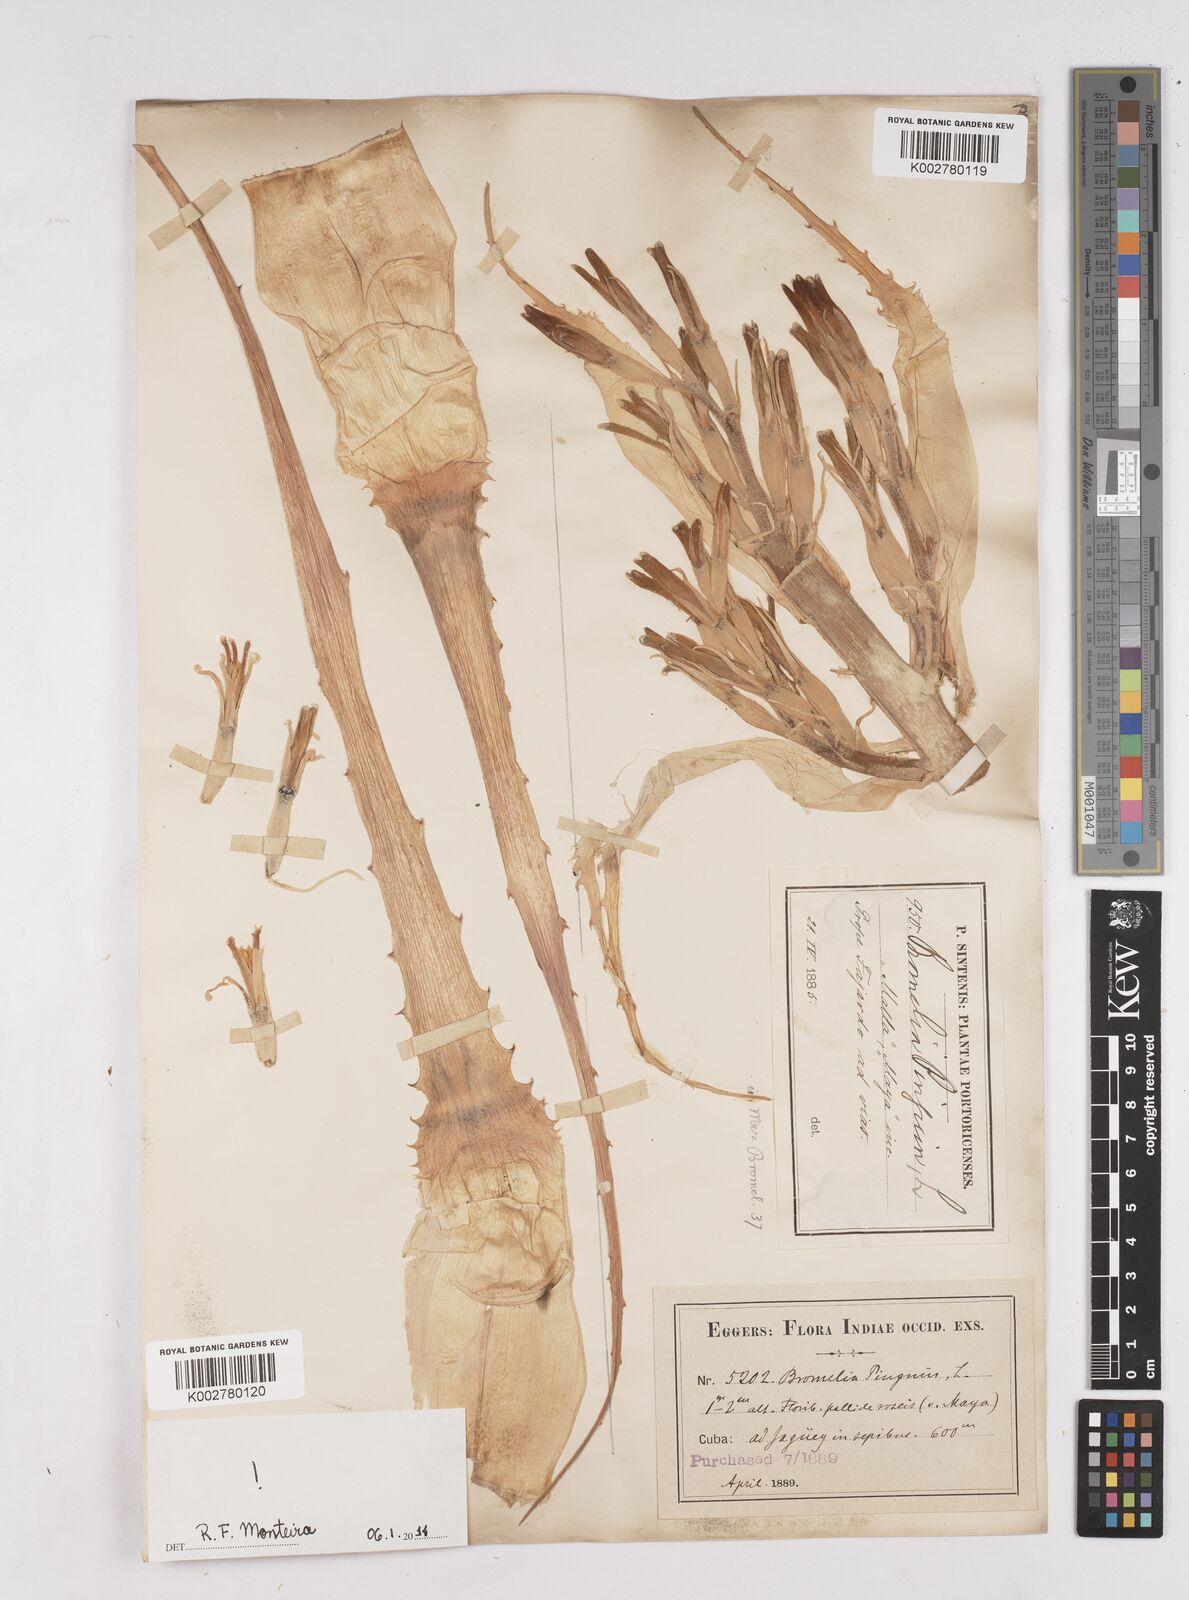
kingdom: Plantae
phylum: Tracheophyta
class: Liliopsida
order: Poales
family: Bromeliaceae
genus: Bromelia
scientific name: Bromelia pinguin
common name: Pinguin
